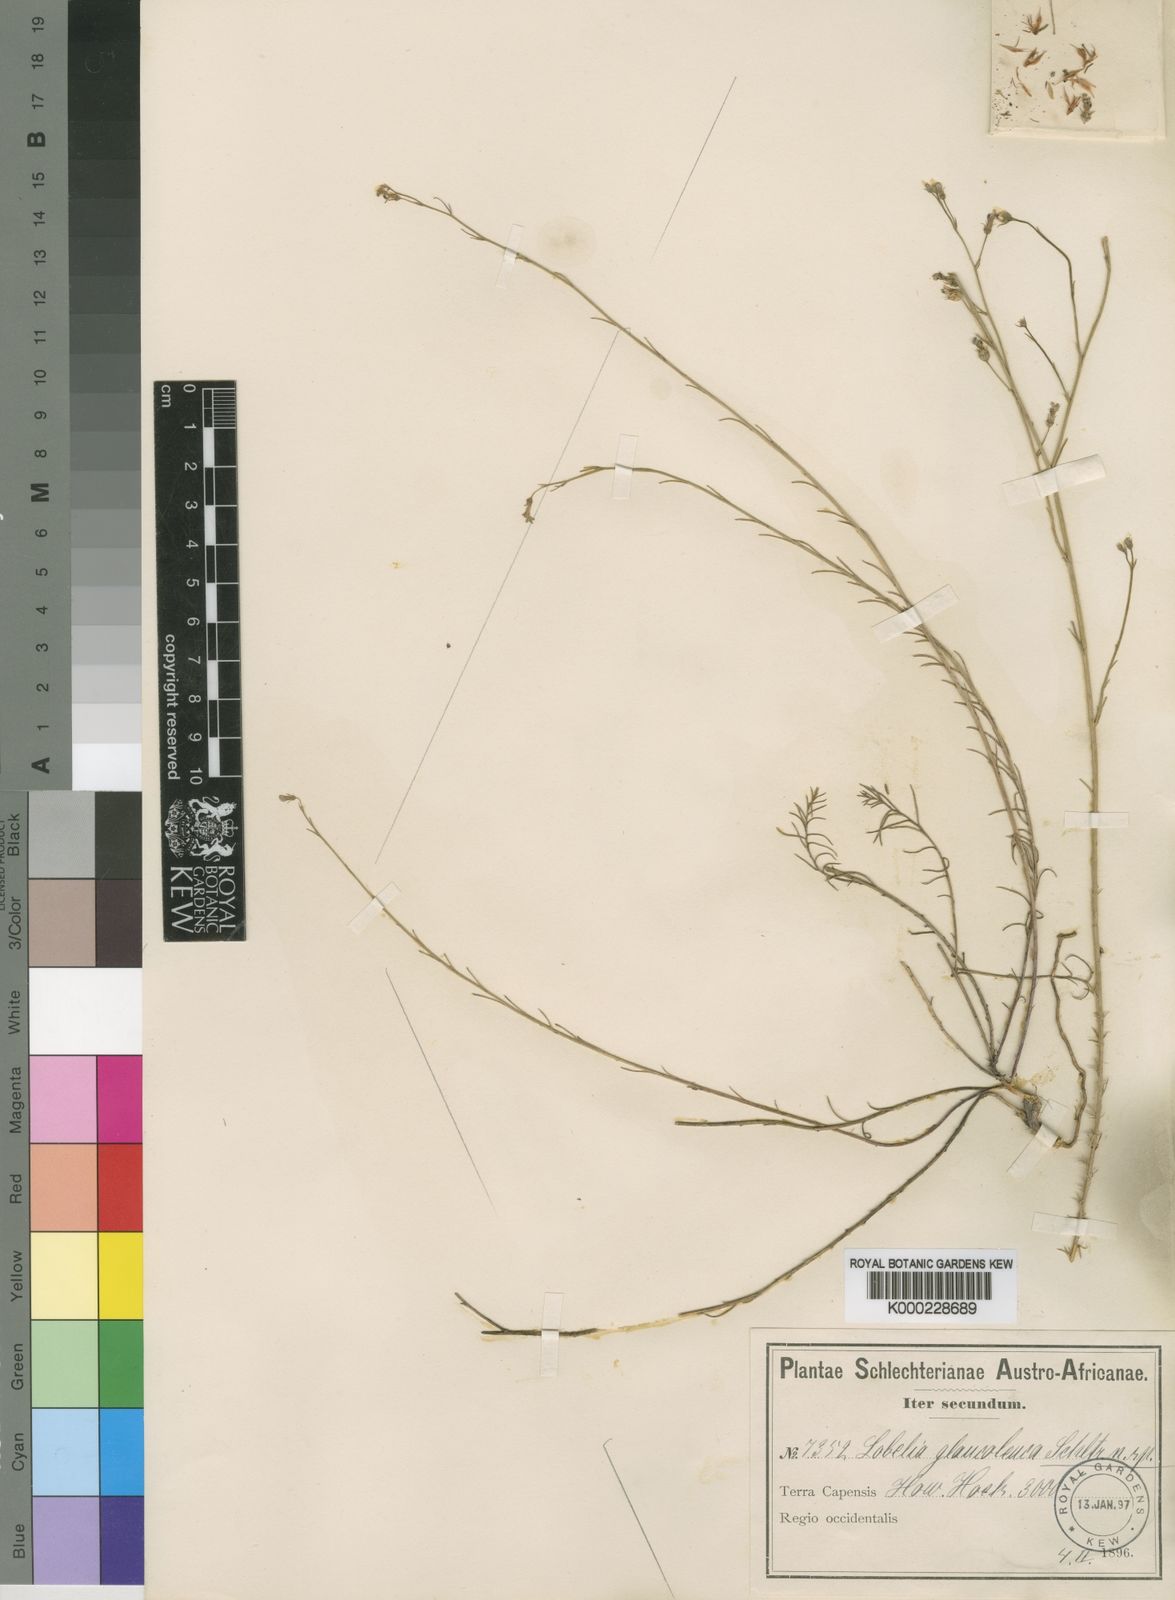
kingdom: Plantae
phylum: Tracheophyta
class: Magnoliopsida
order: Asterales
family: Campanulaceae
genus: Lobelia
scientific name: Lobelia setacea
